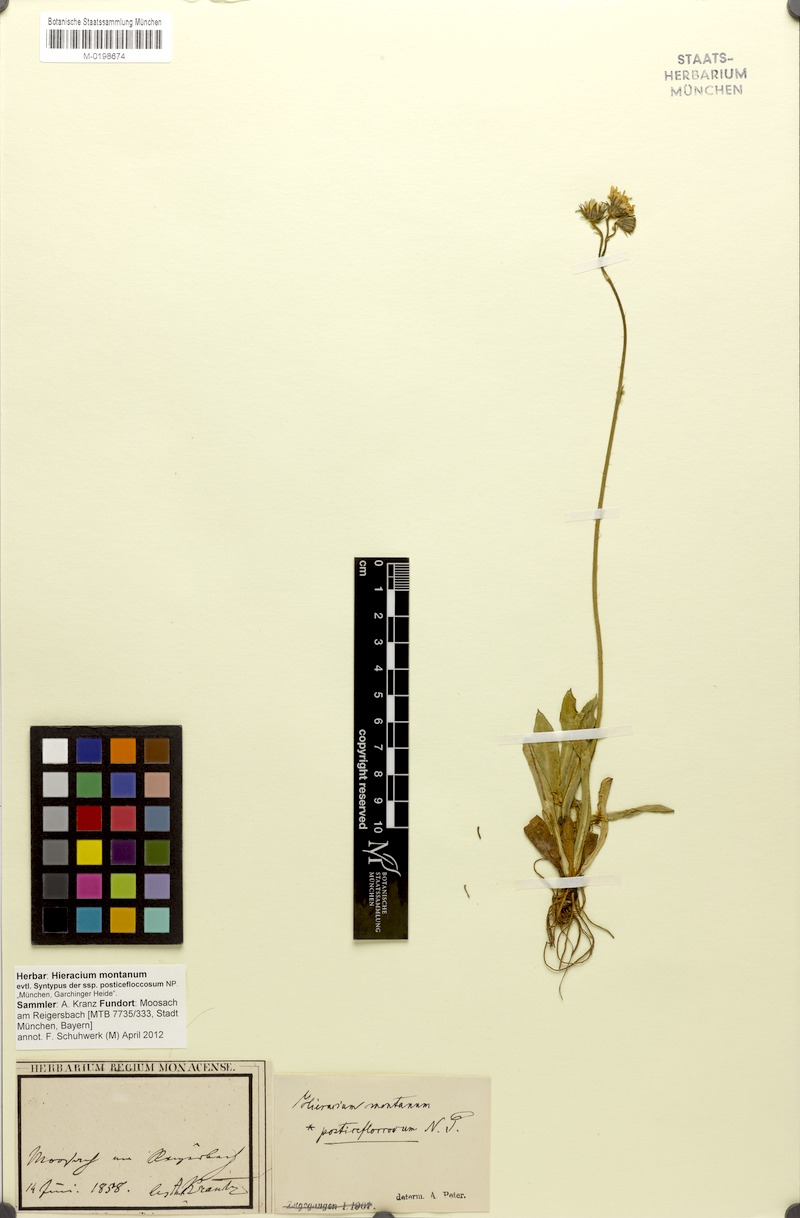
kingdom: Plantae
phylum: Tracheophyta
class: Magnoliopsida
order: Asterales
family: Asteraceae
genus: Pilosella
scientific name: Pilosella leptoclados
